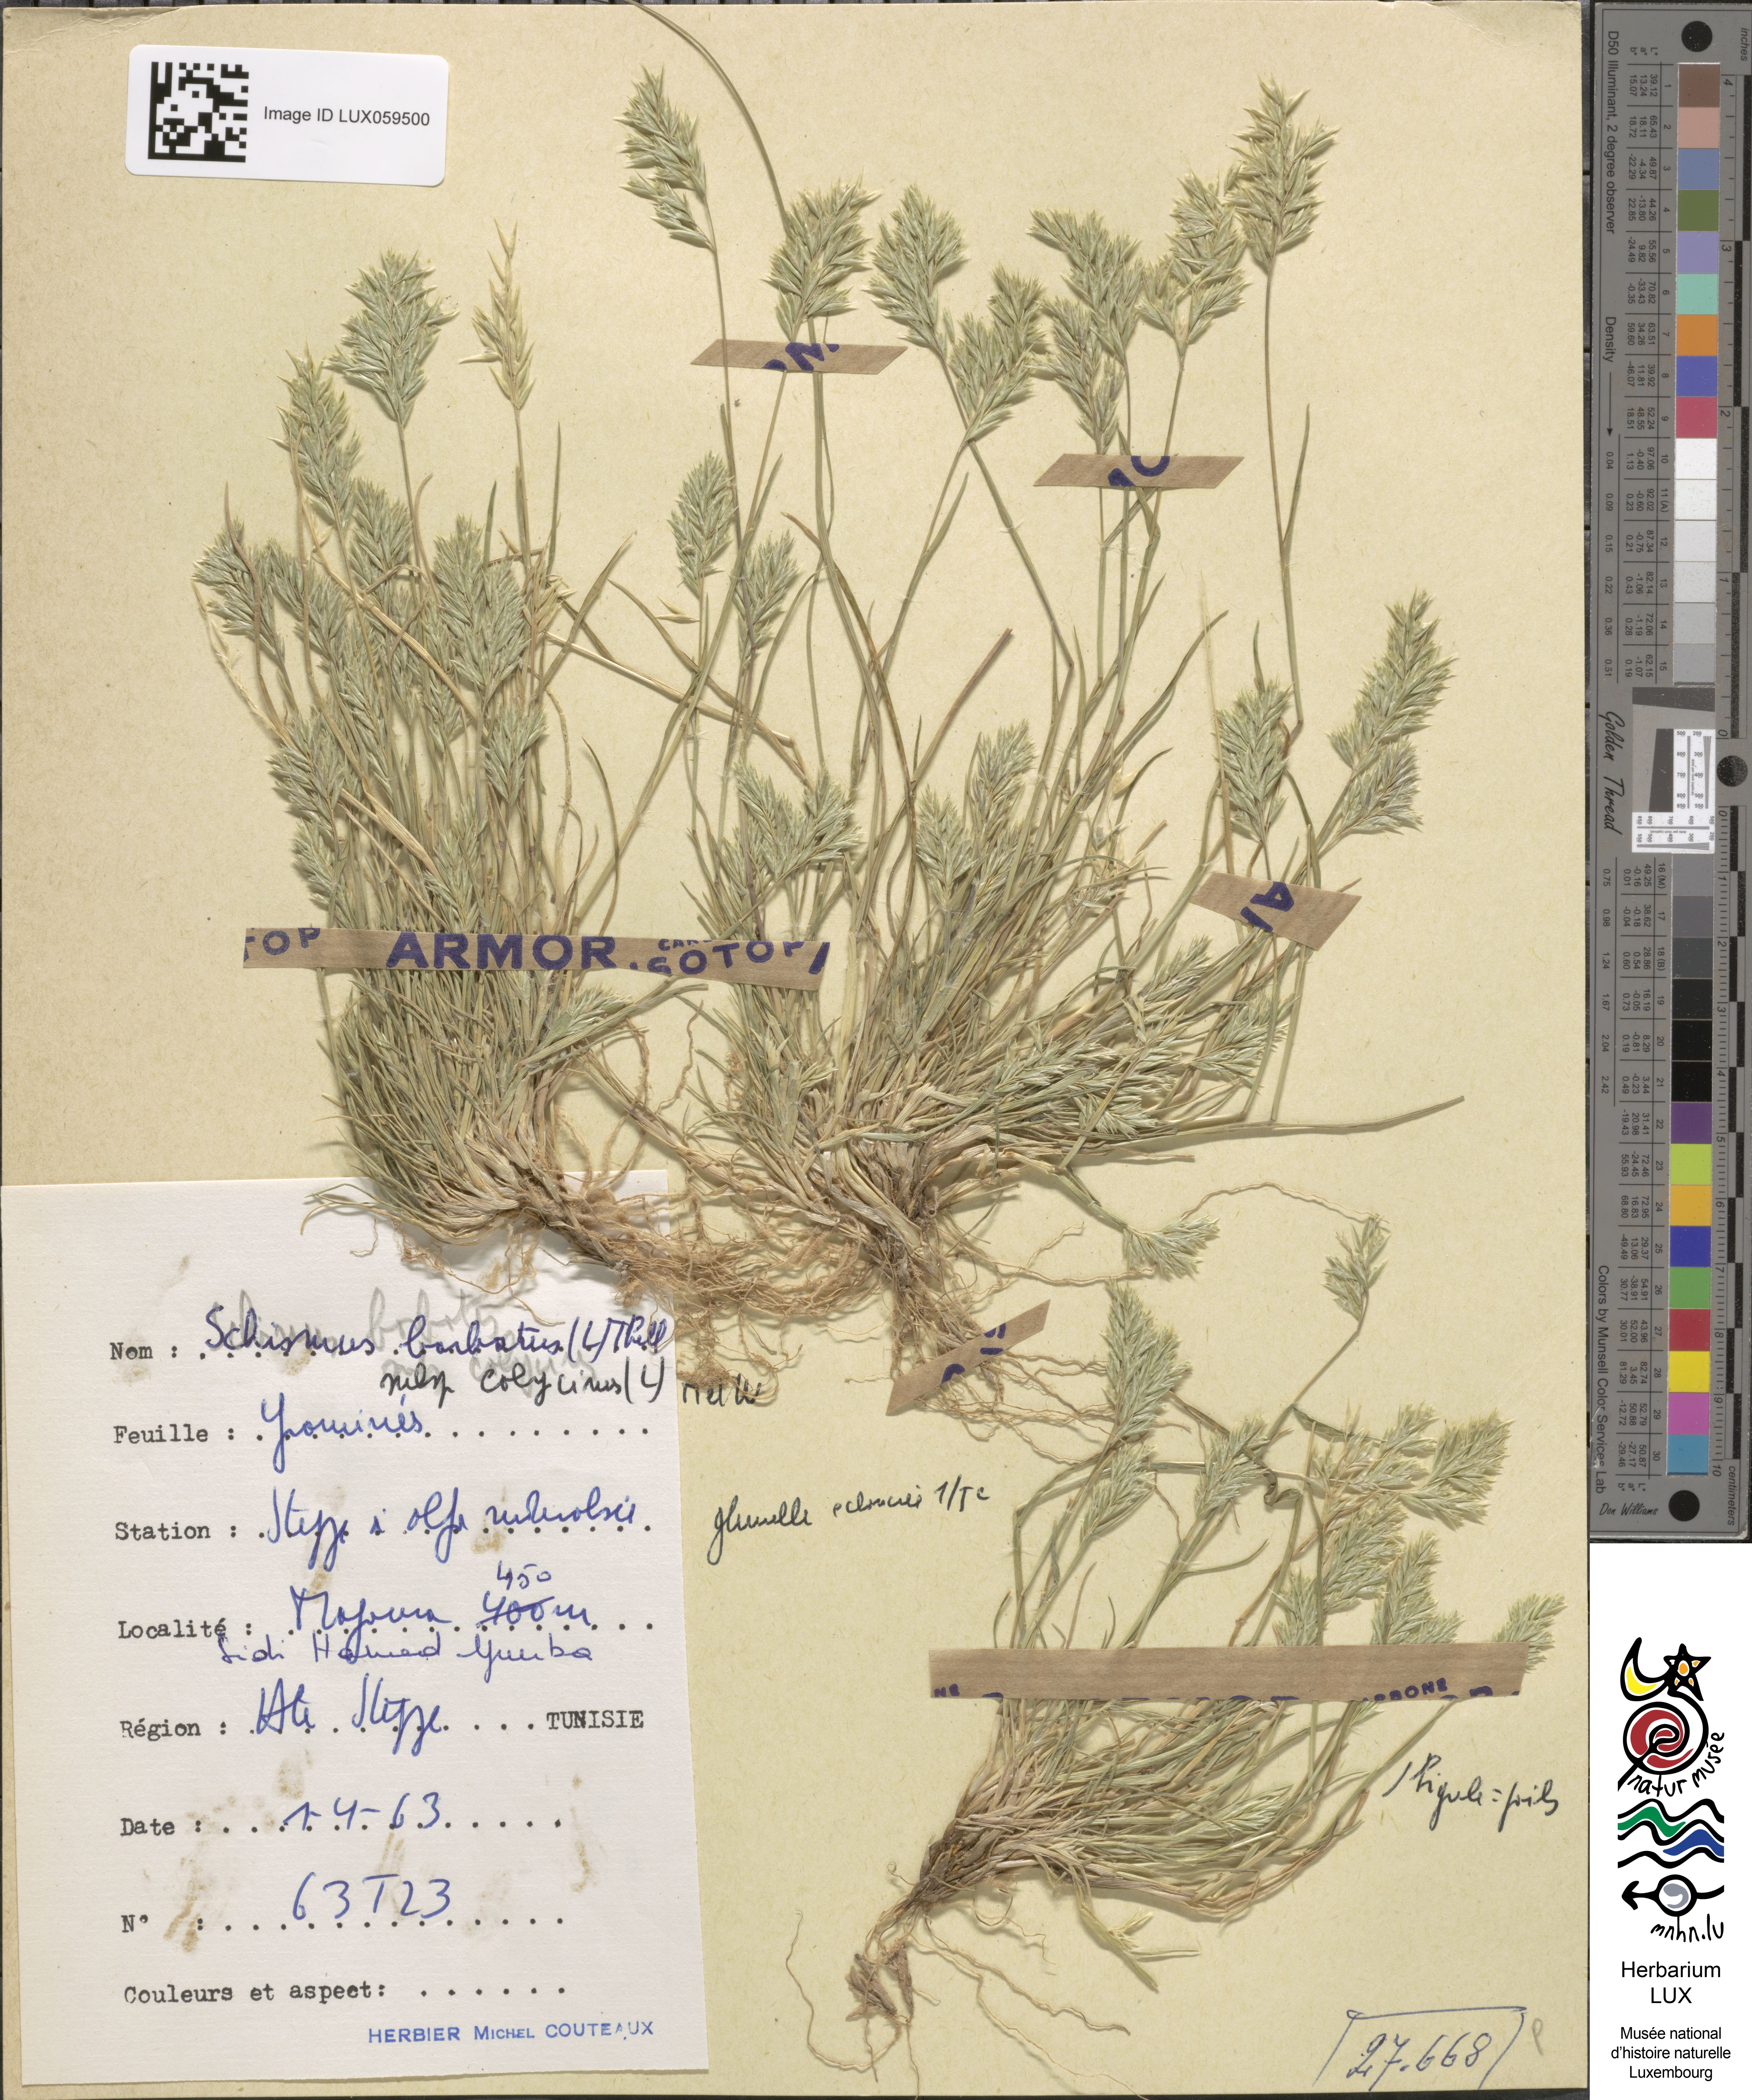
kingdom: Plantae
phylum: Tracheophyta
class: Liliopsida
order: Poales
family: Poaceae
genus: Schismus
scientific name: Schismus barbatus
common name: Kelch-grass
